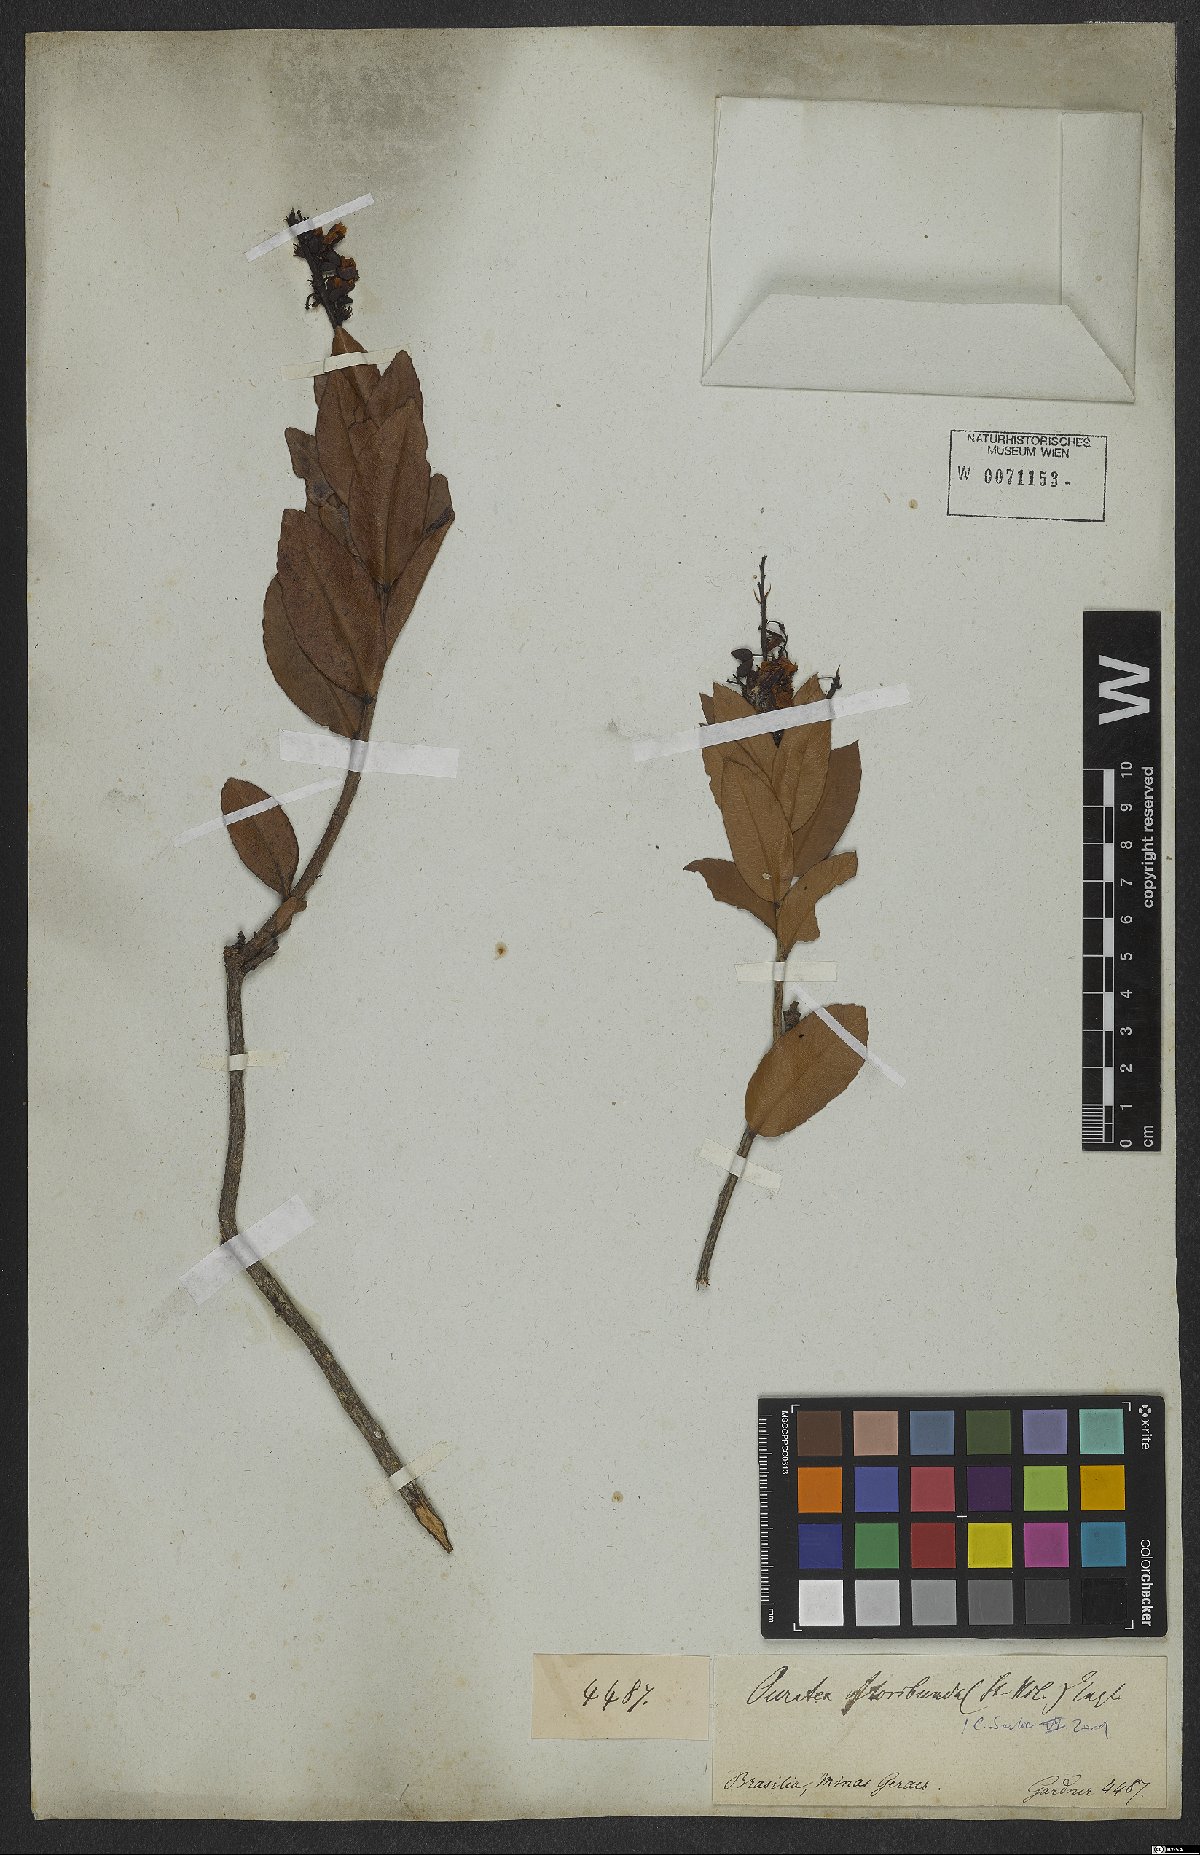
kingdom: Plantae
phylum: Tracheophyta
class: Magnoliopsida
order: Malpighiales
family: Ochnaceae
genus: Campylospermum
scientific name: Campylospermum bukobense
